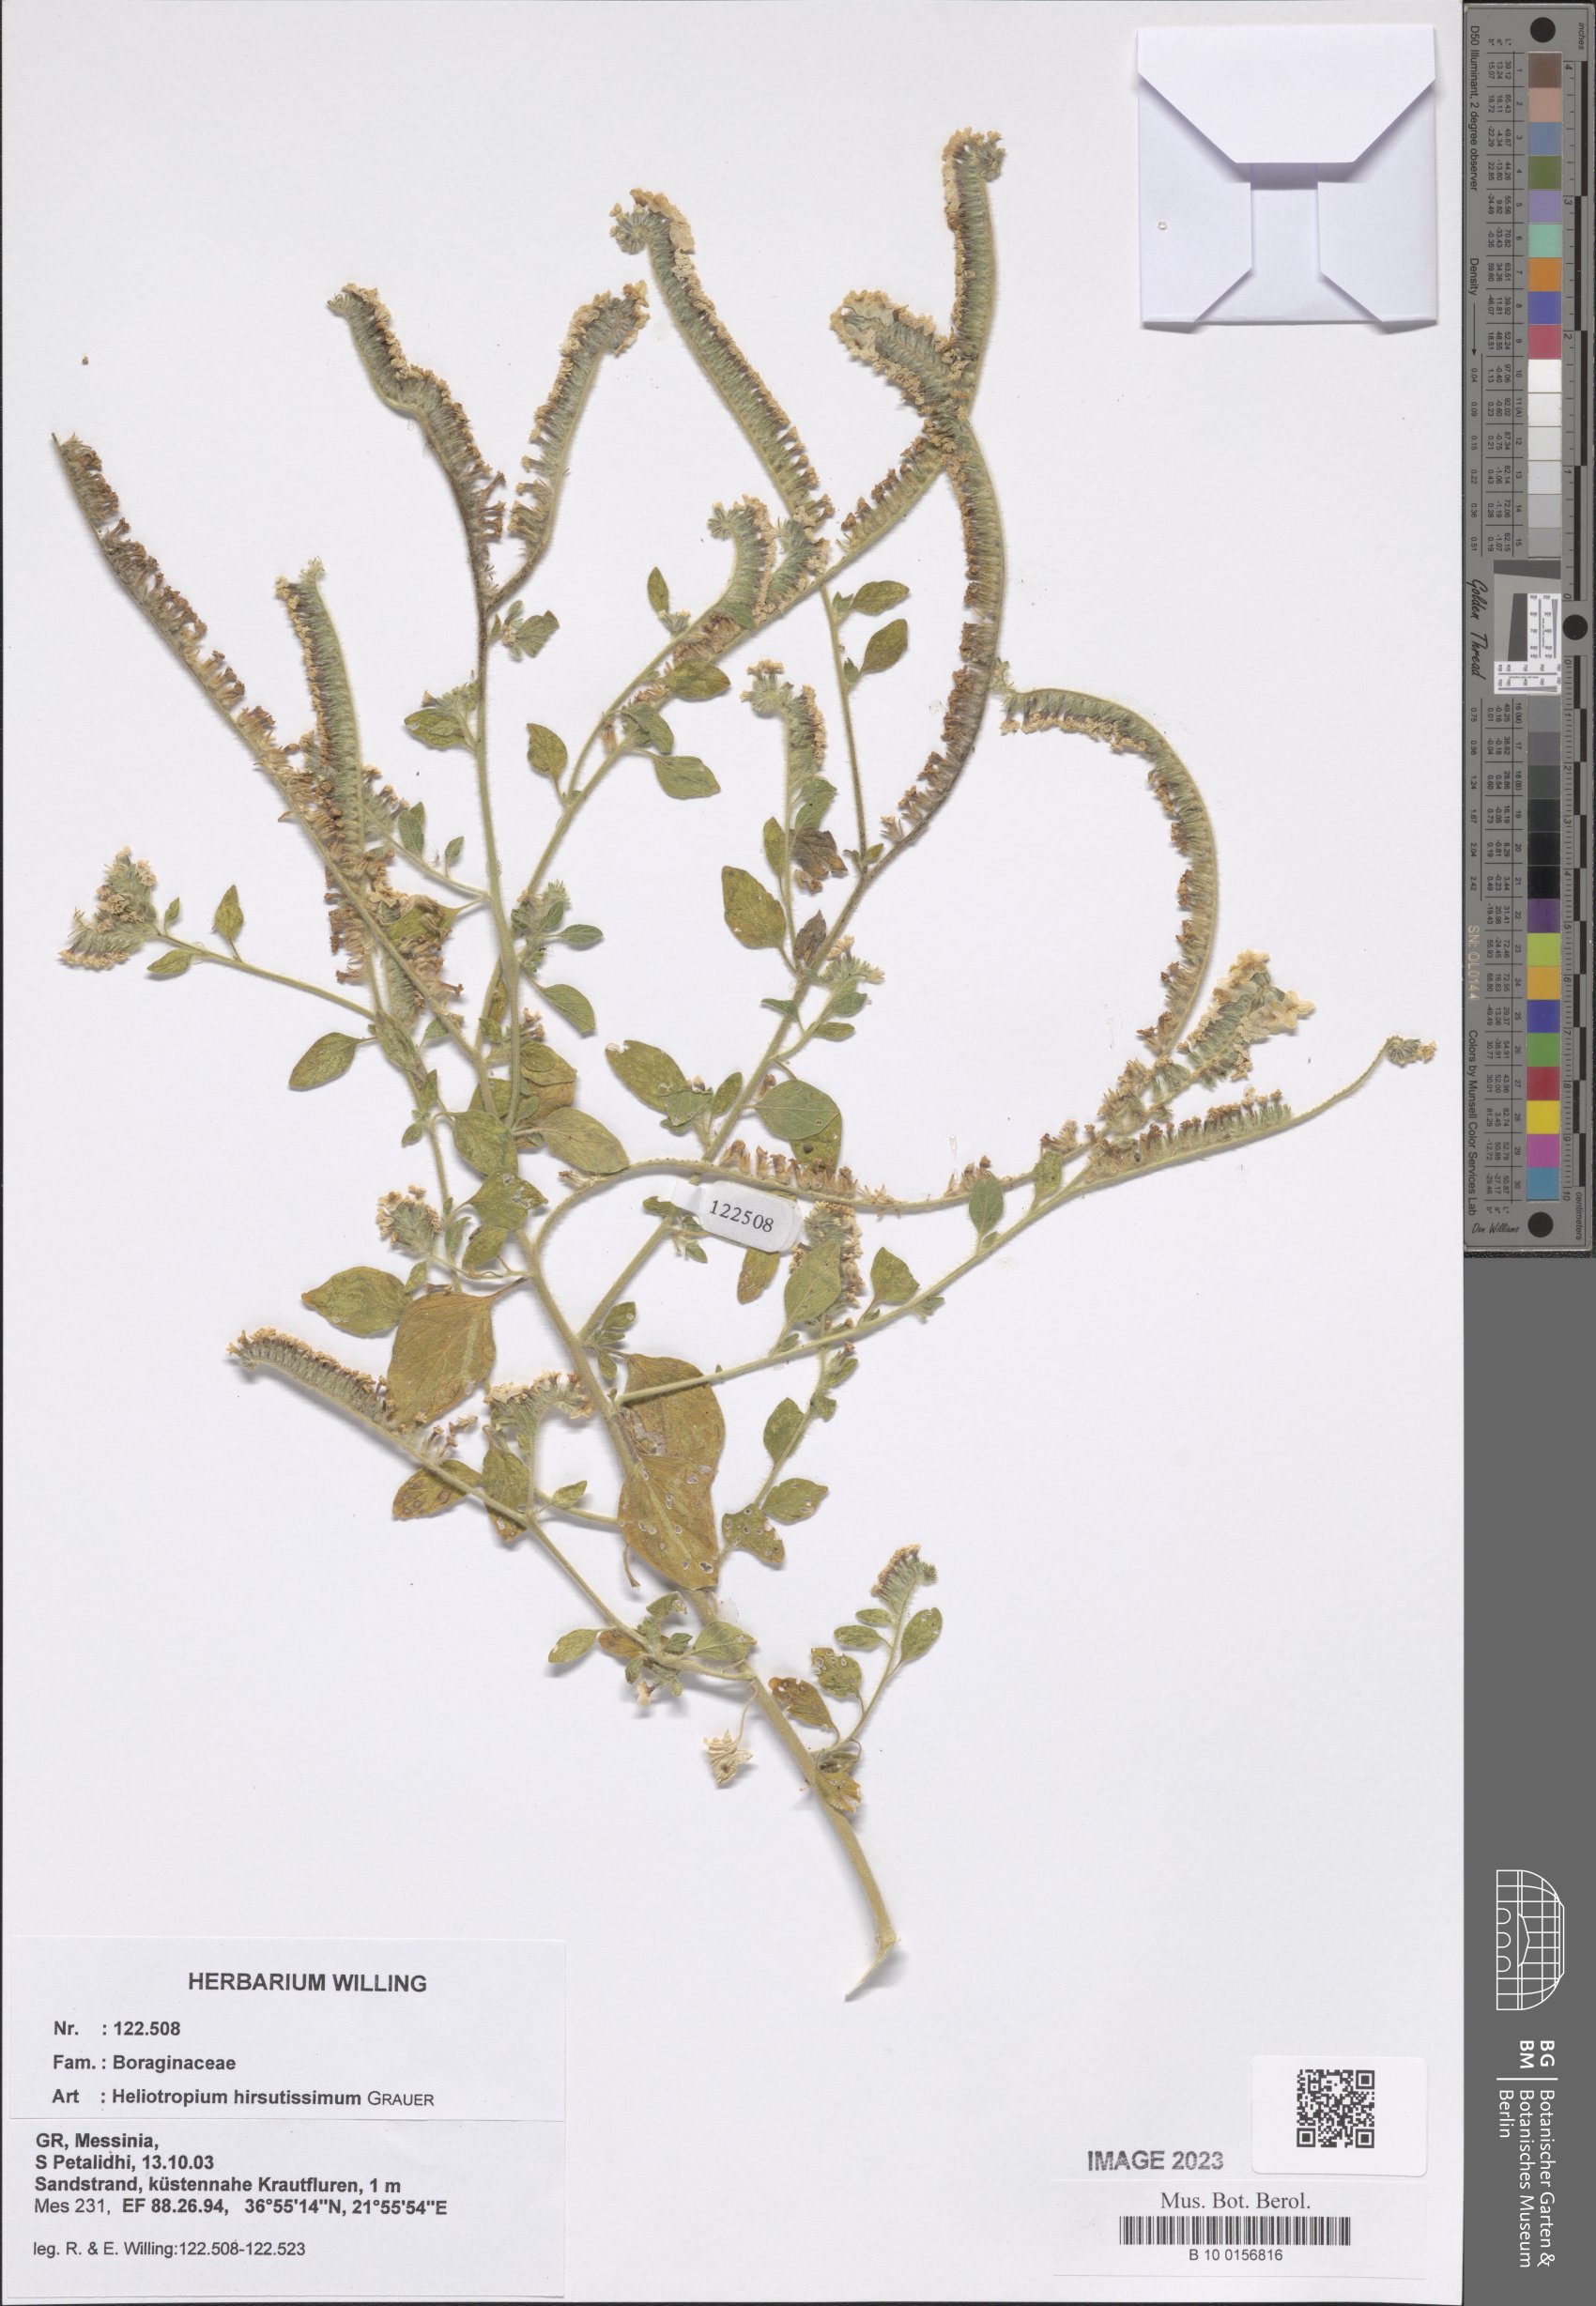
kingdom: Plantae
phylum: Tracheophyta
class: Magnoliopsida
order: Boraginales
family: Heliotropiaceae
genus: Heliotropium
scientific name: Heliotropium hirsutissimum
